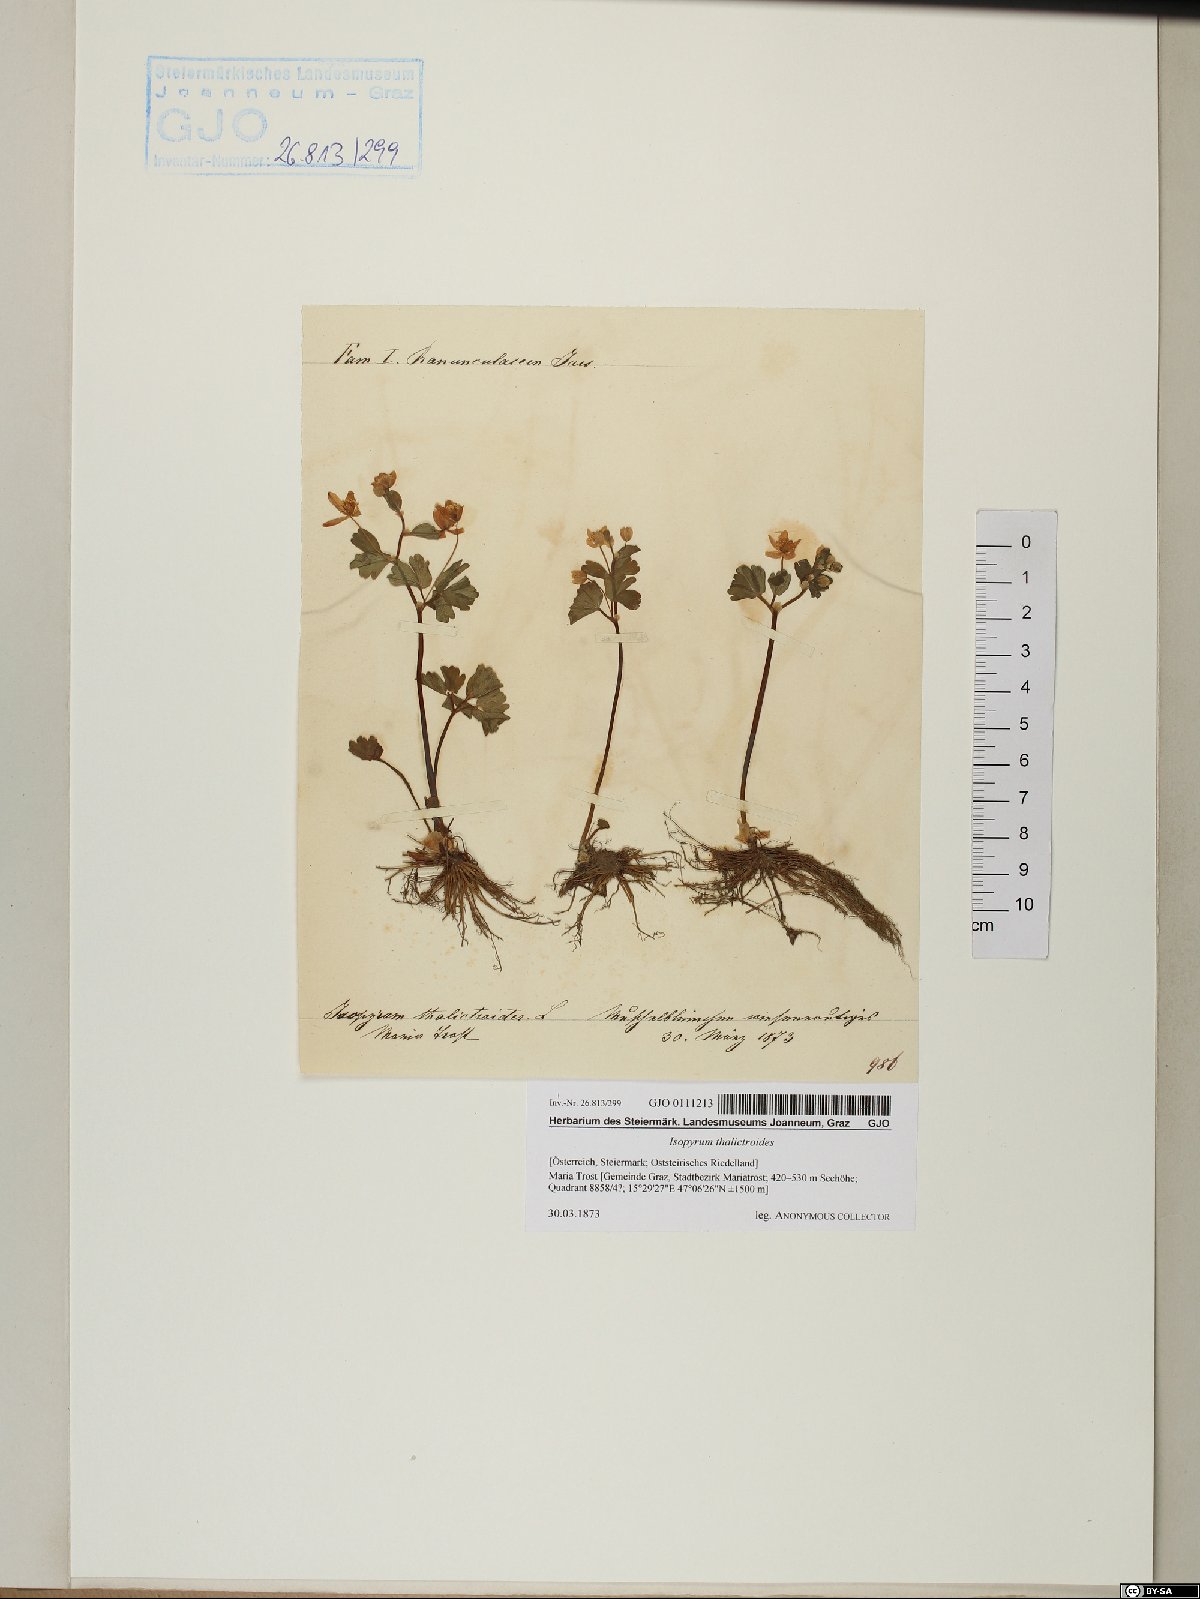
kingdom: Plantae
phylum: Tracheophyta
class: Magnoliopsida
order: Ranunculales
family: Ranunculaceae
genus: Isopyrum
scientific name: Isopyrum thalictroides
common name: Isopyrum
